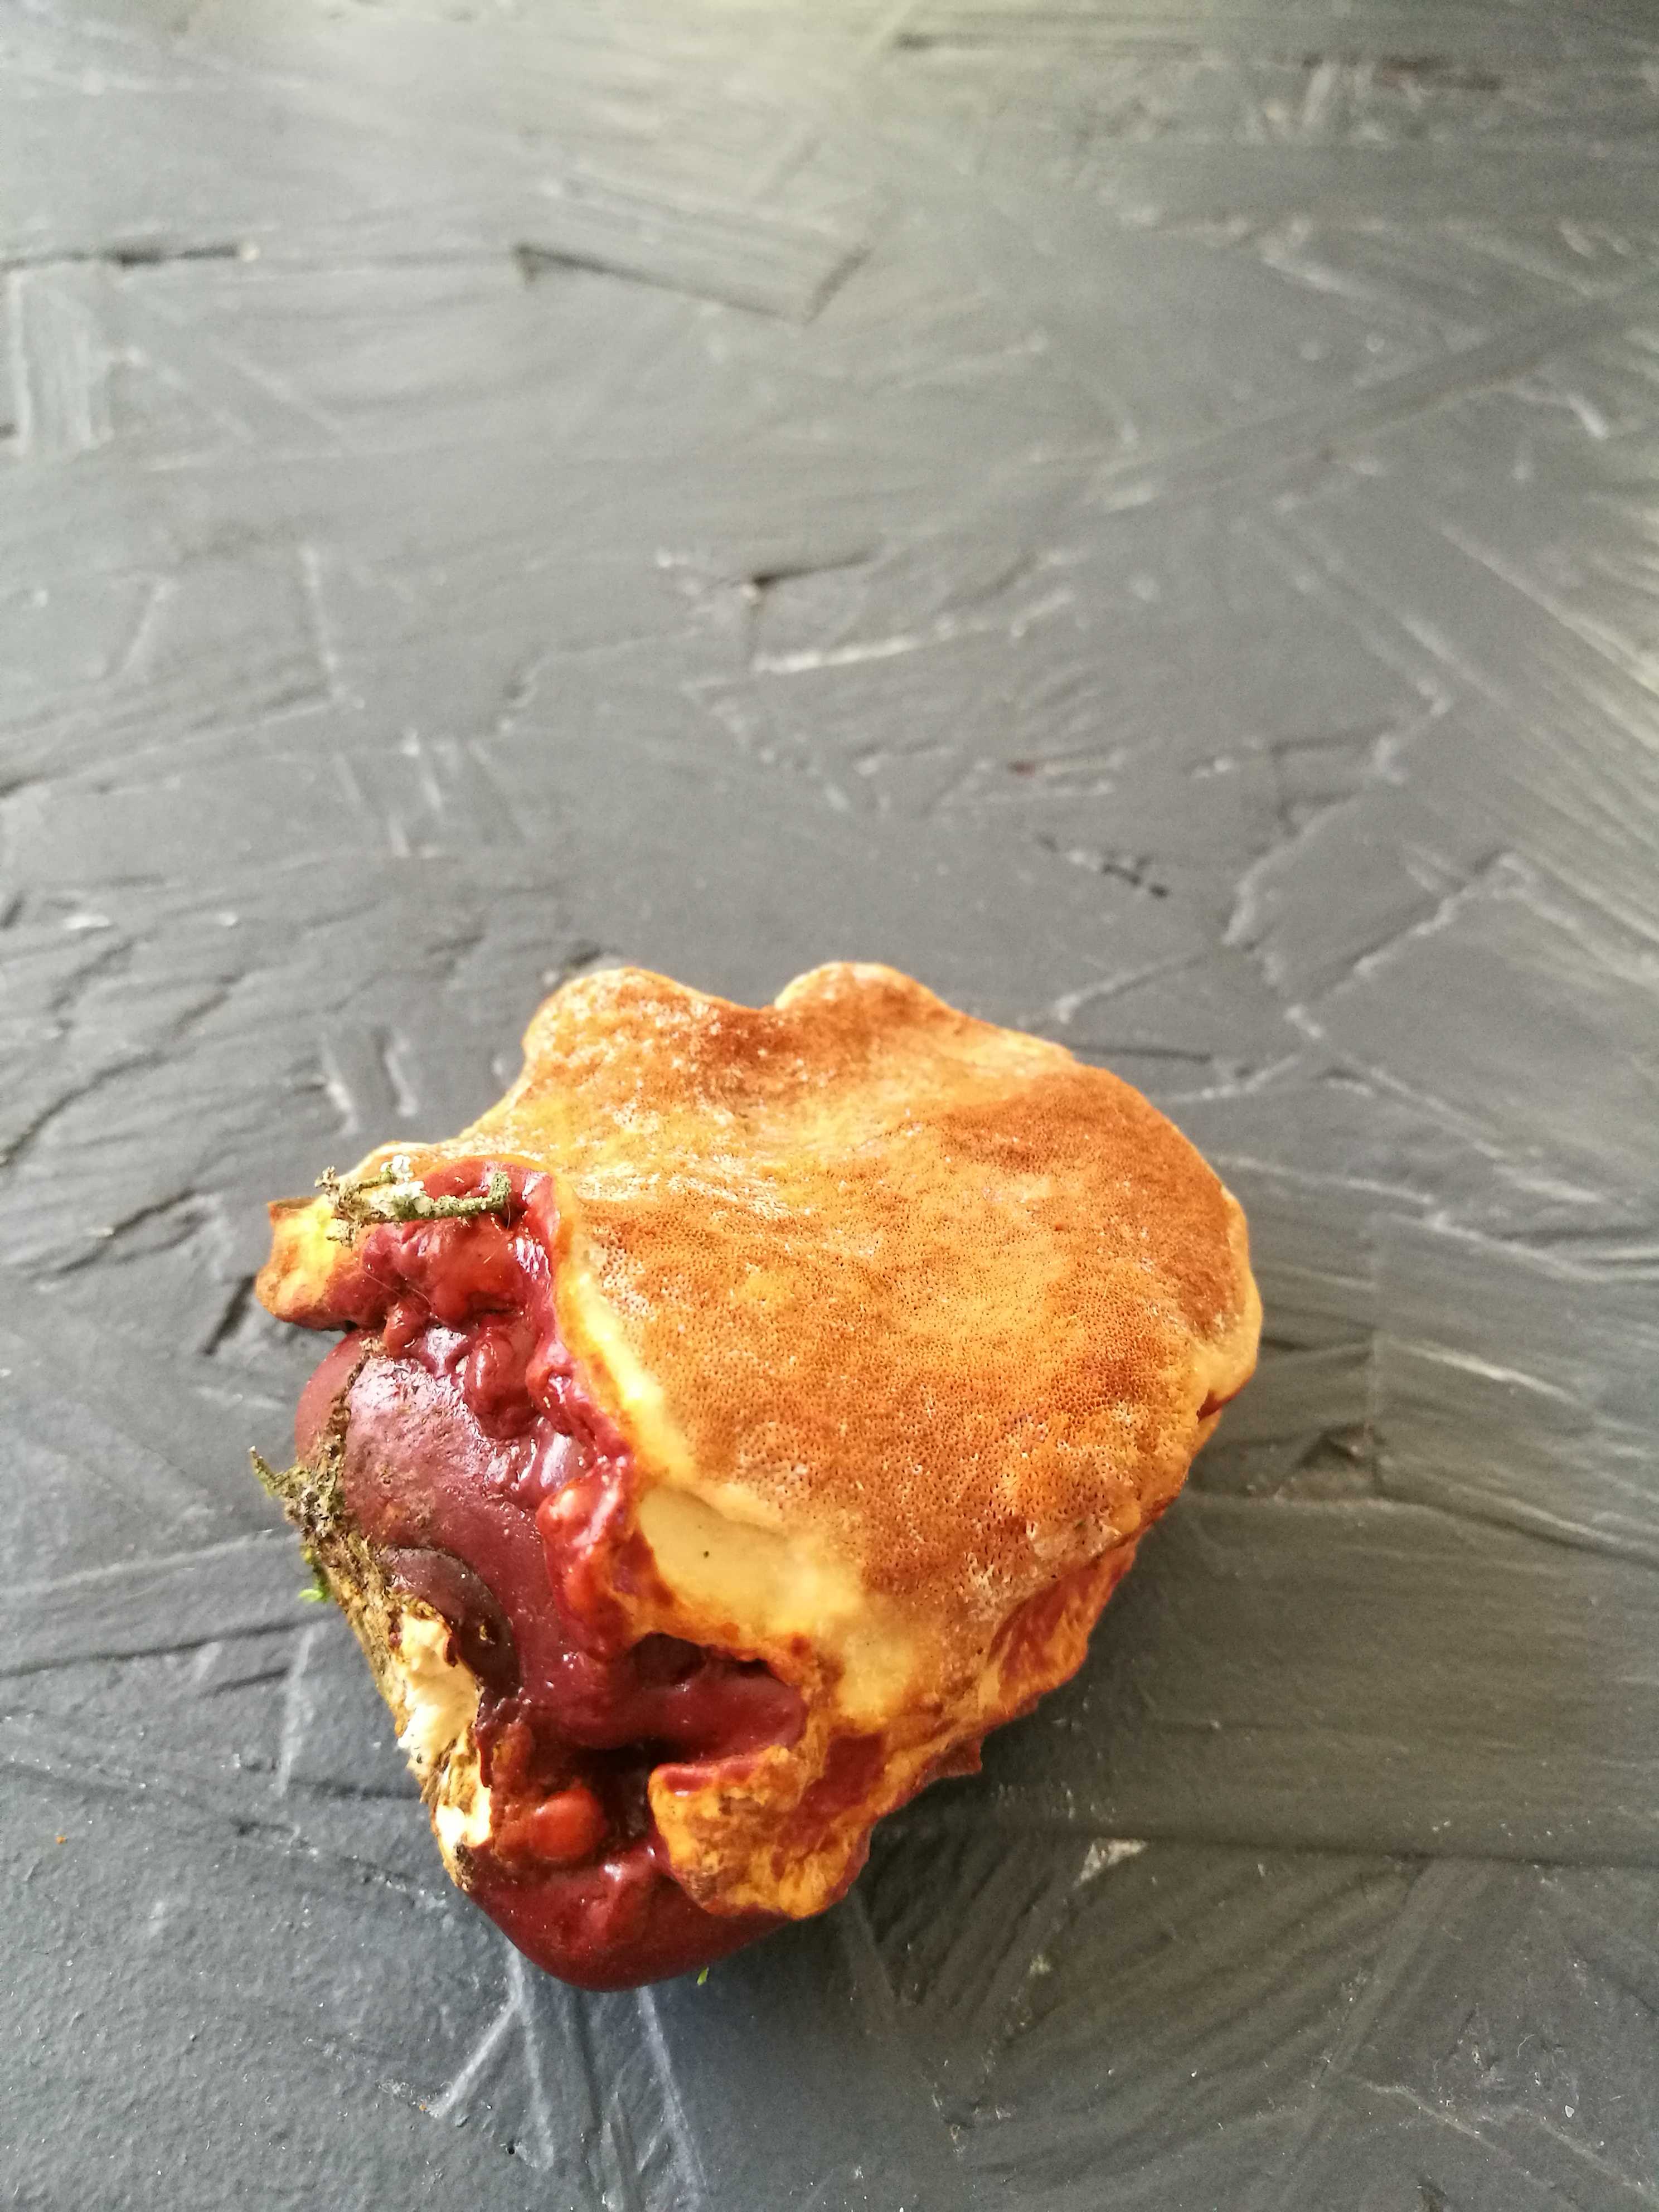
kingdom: Fungi
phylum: Basidiomycota
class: Agaricomycetes
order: Polyporales
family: Polyporaceae
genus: Ganoderma
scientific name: Ganoderma lucidum
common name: skinnende lakporesvamp
